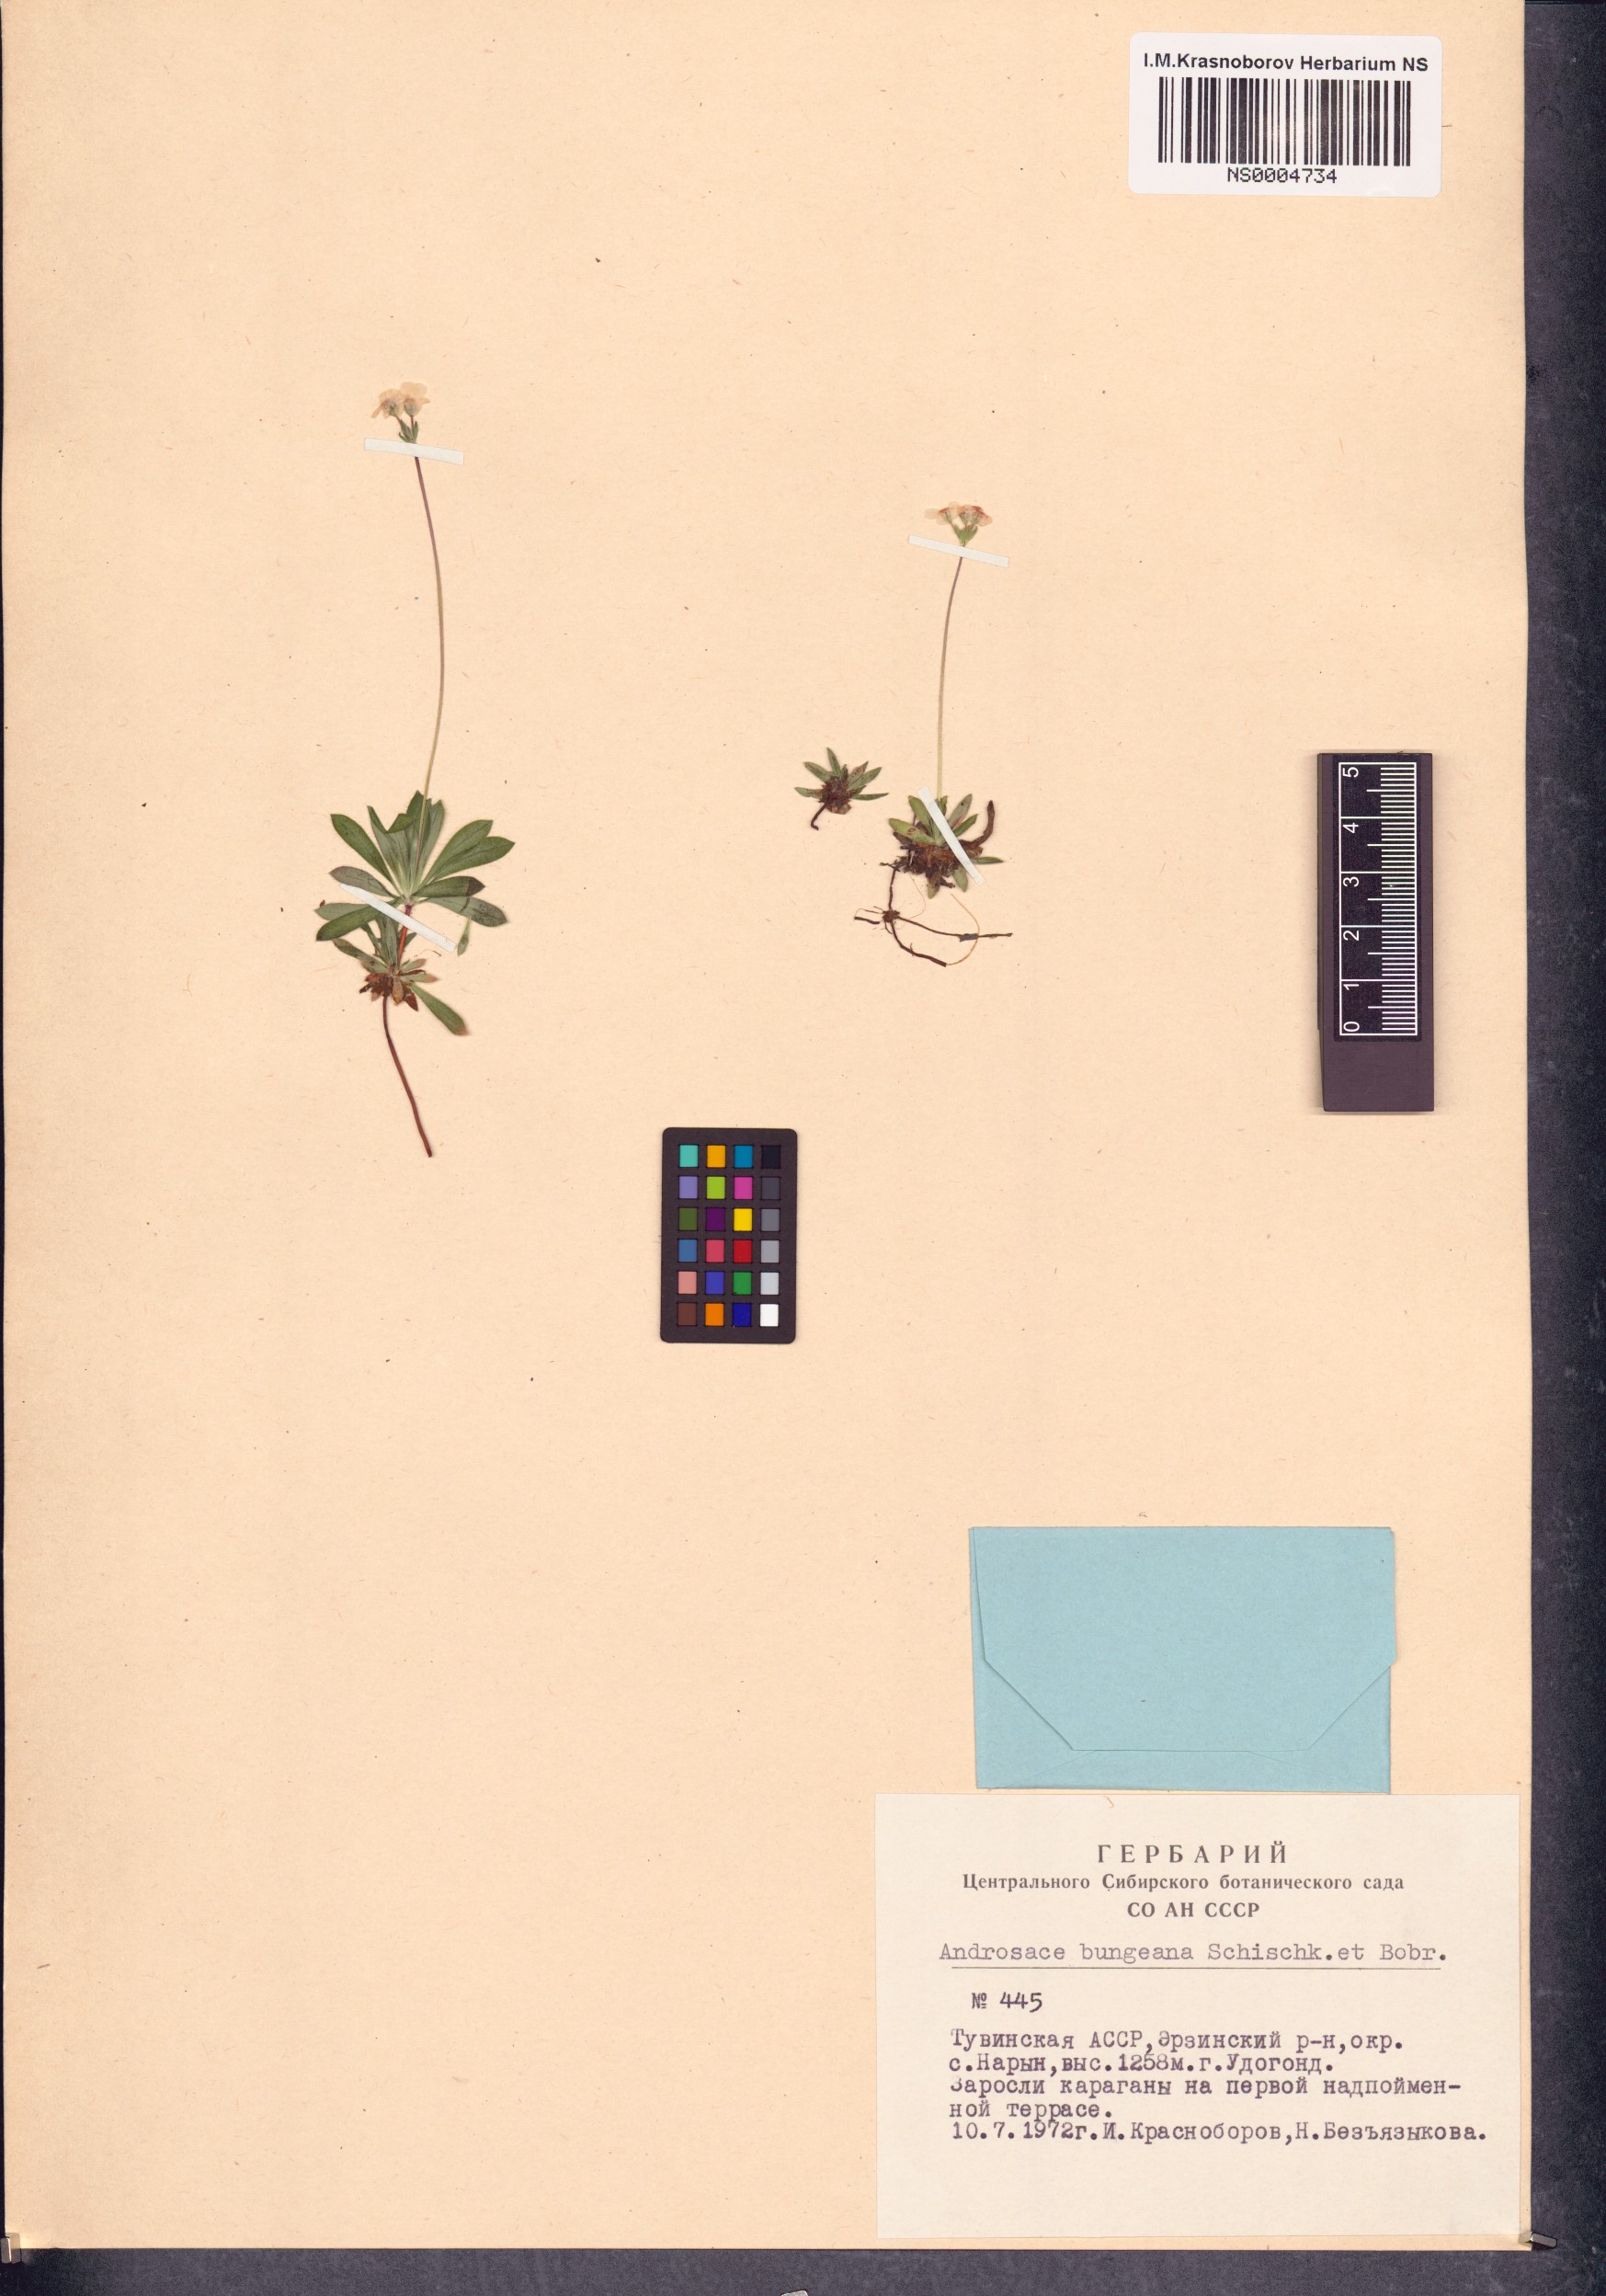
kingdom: Plantae
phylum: Tracheophyta
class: Magnoliopsida
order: Ericales
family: Primulaceae
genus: Androsace
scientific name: Androsace bungeana
